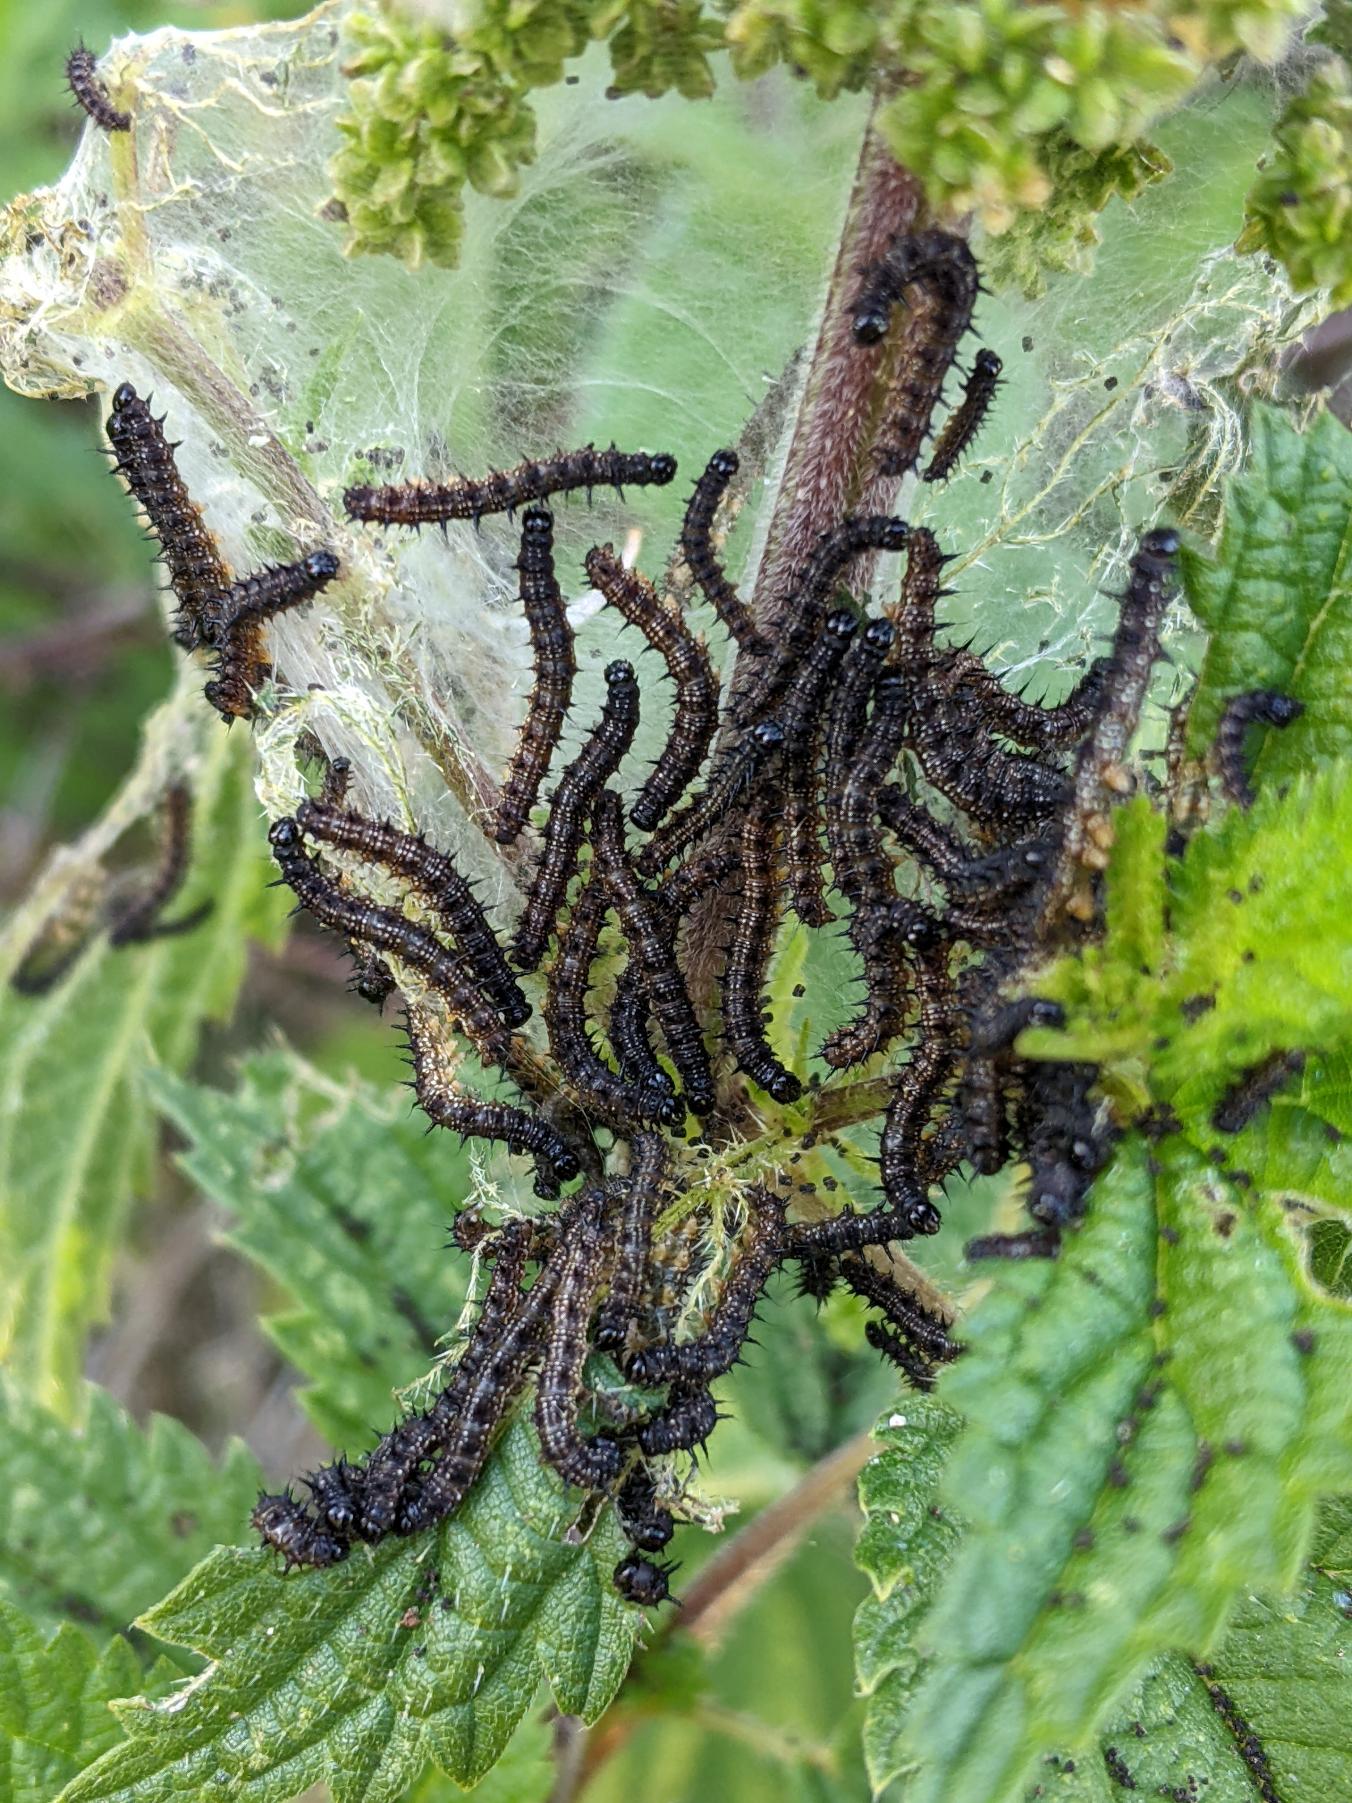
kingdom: Animalia
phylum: Arthropoda
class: Insecta
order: Lepidoptera
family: Nymphalidae
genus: Aglais
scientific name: Aglais urticae
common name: Nældens takvinge
